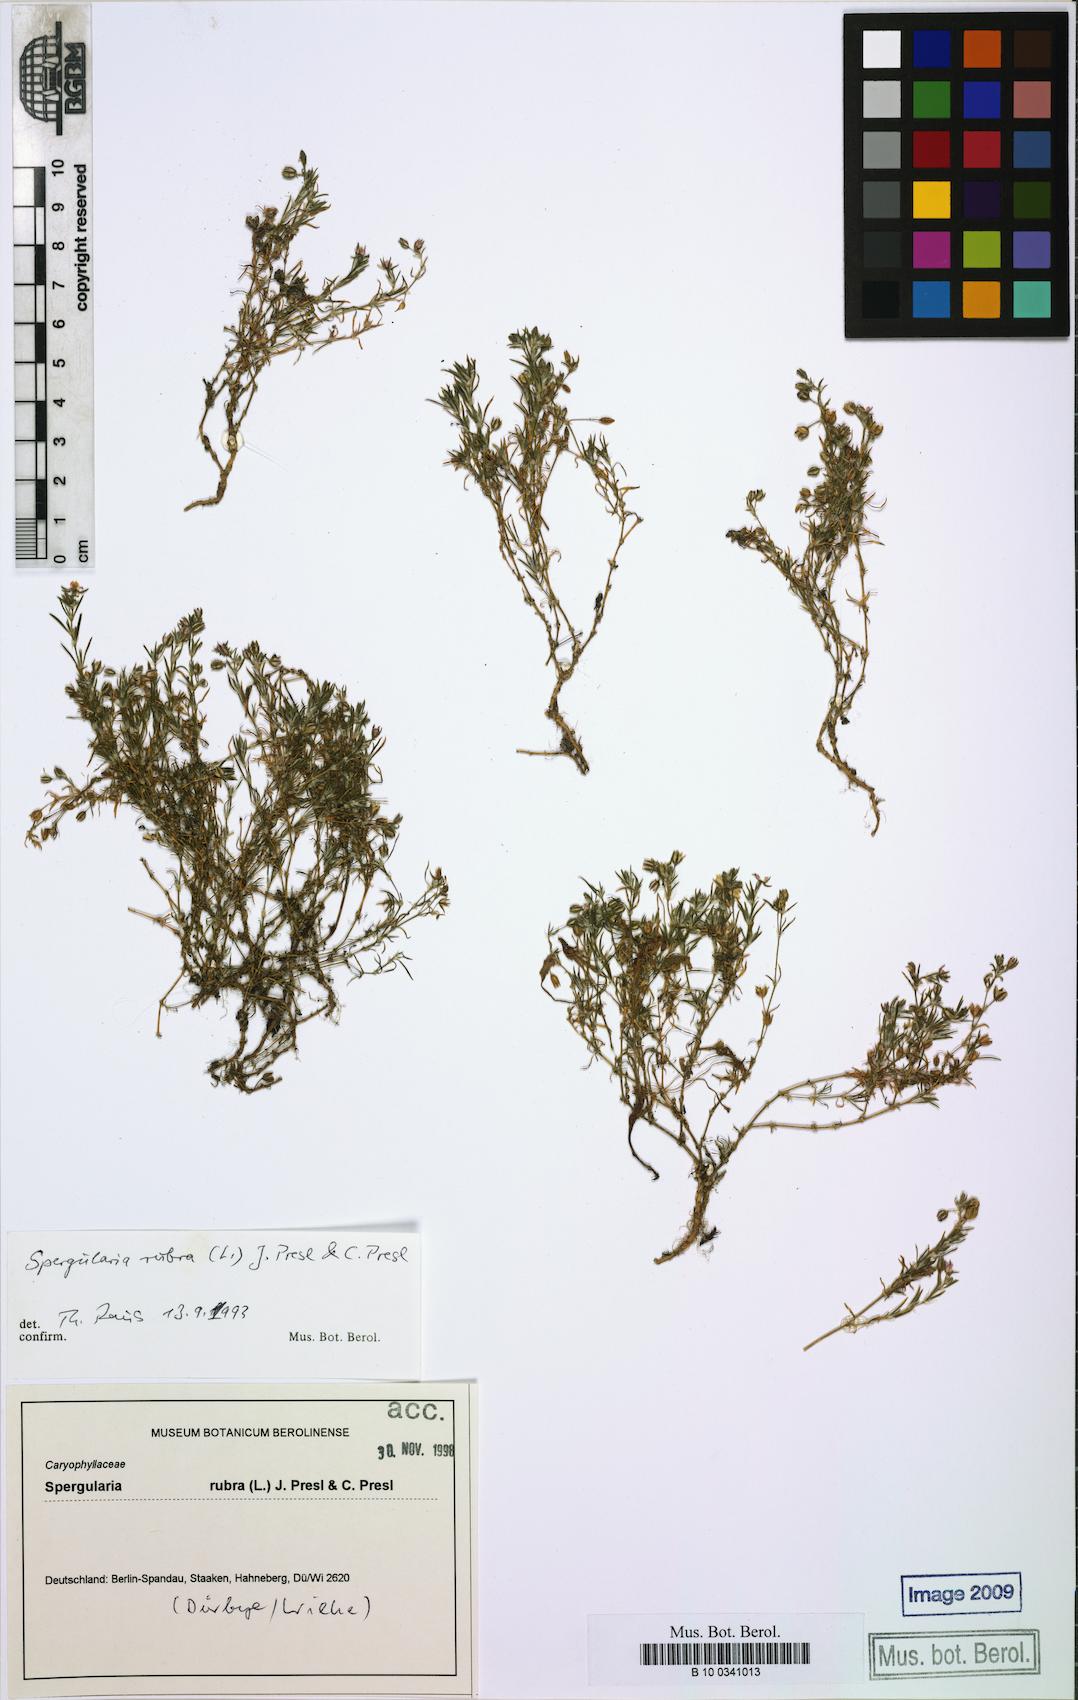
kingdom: Plantae
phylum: Tracheophyta
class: Magnoliopsida
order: Caryophyllales
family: Caryophyllaceae
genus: Spergularia
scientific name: Spergularia rubra
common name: Red sand-spurrey
